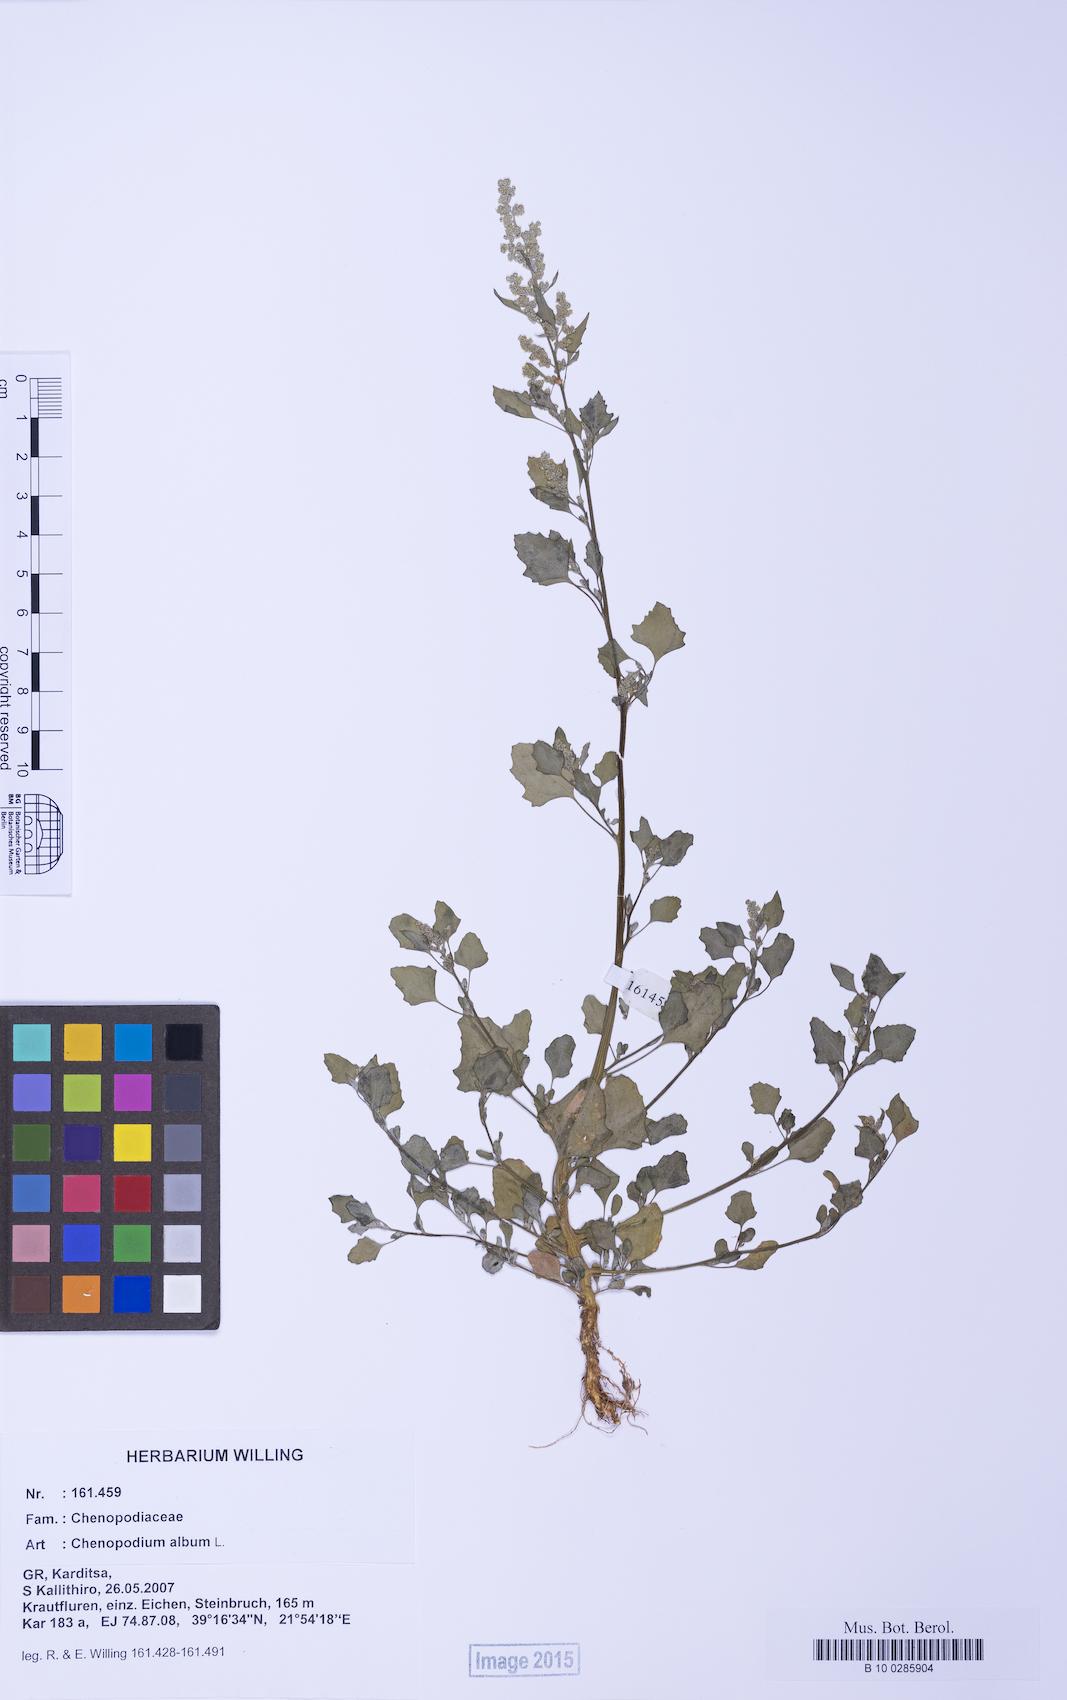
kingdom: Plantae
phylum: Tracheophyta
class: Magnoliopsida
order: Caryophyllales
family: Amaranthaceae
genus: Chenopodium
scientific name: Chenopodium album
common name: Fat-hen
